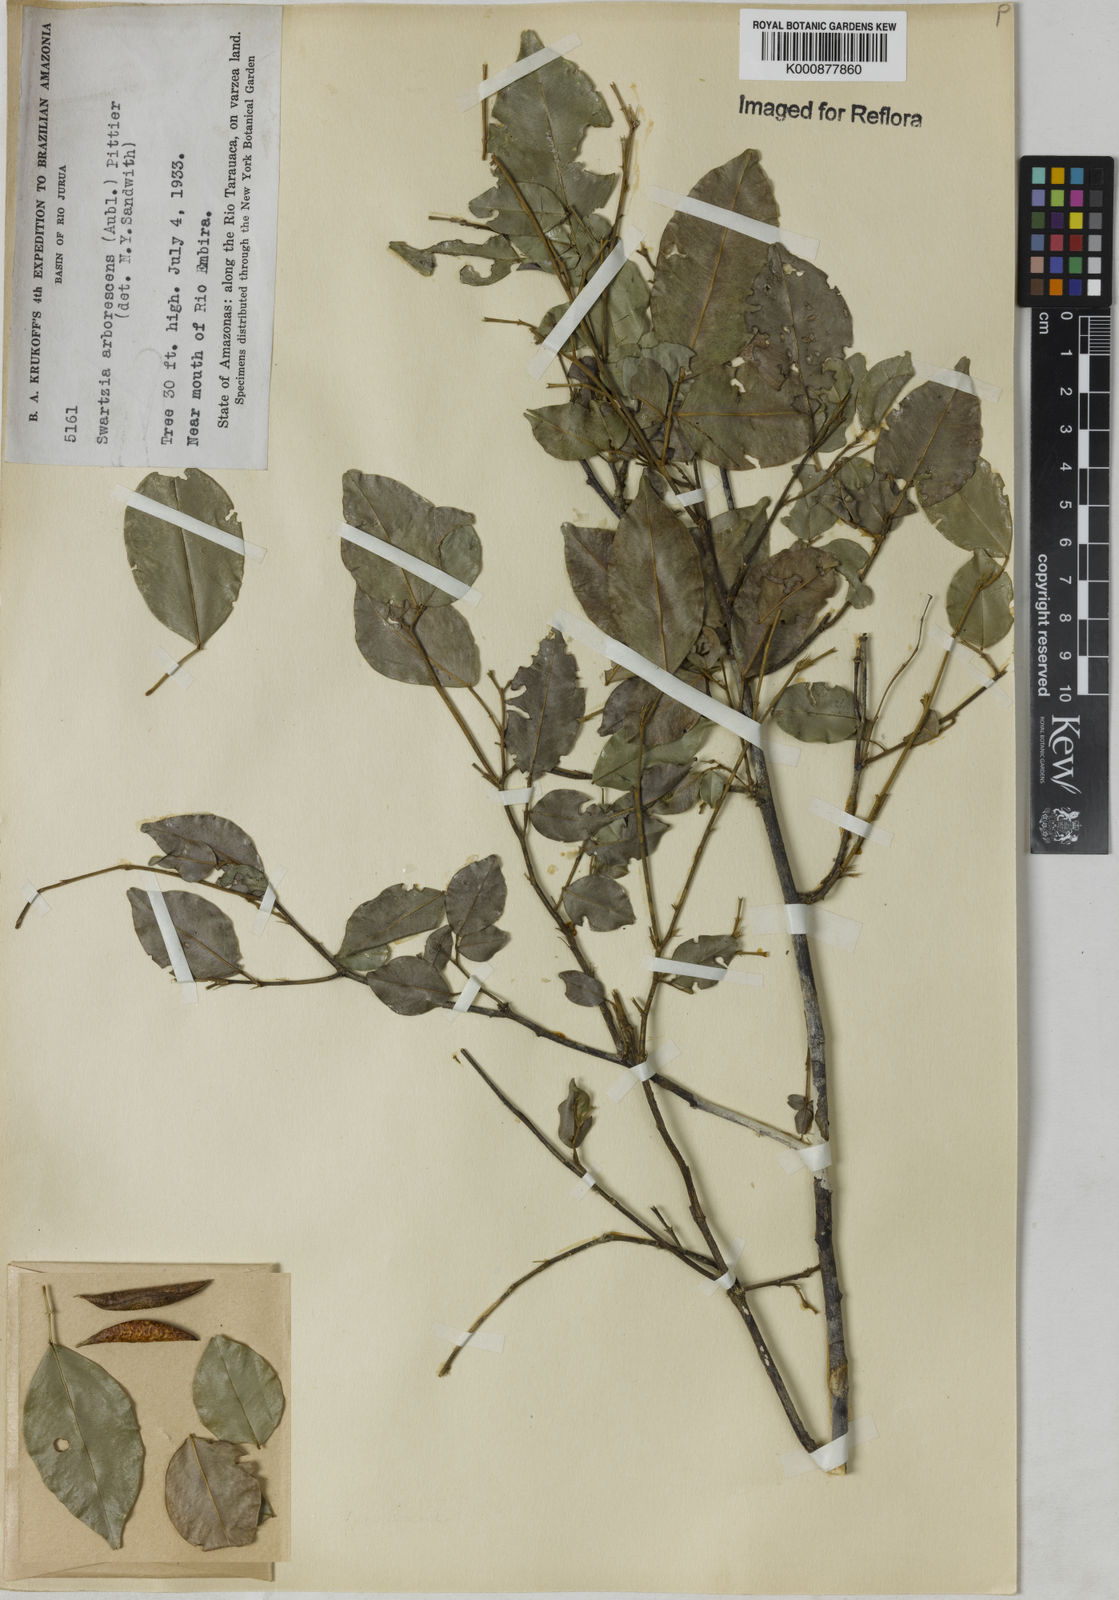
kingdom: Plantae
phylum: Tracheophyta
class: Magnoliopsida
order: Fabales
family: Fabaceae
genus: Swartzia
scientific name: Swartzia arborescens
